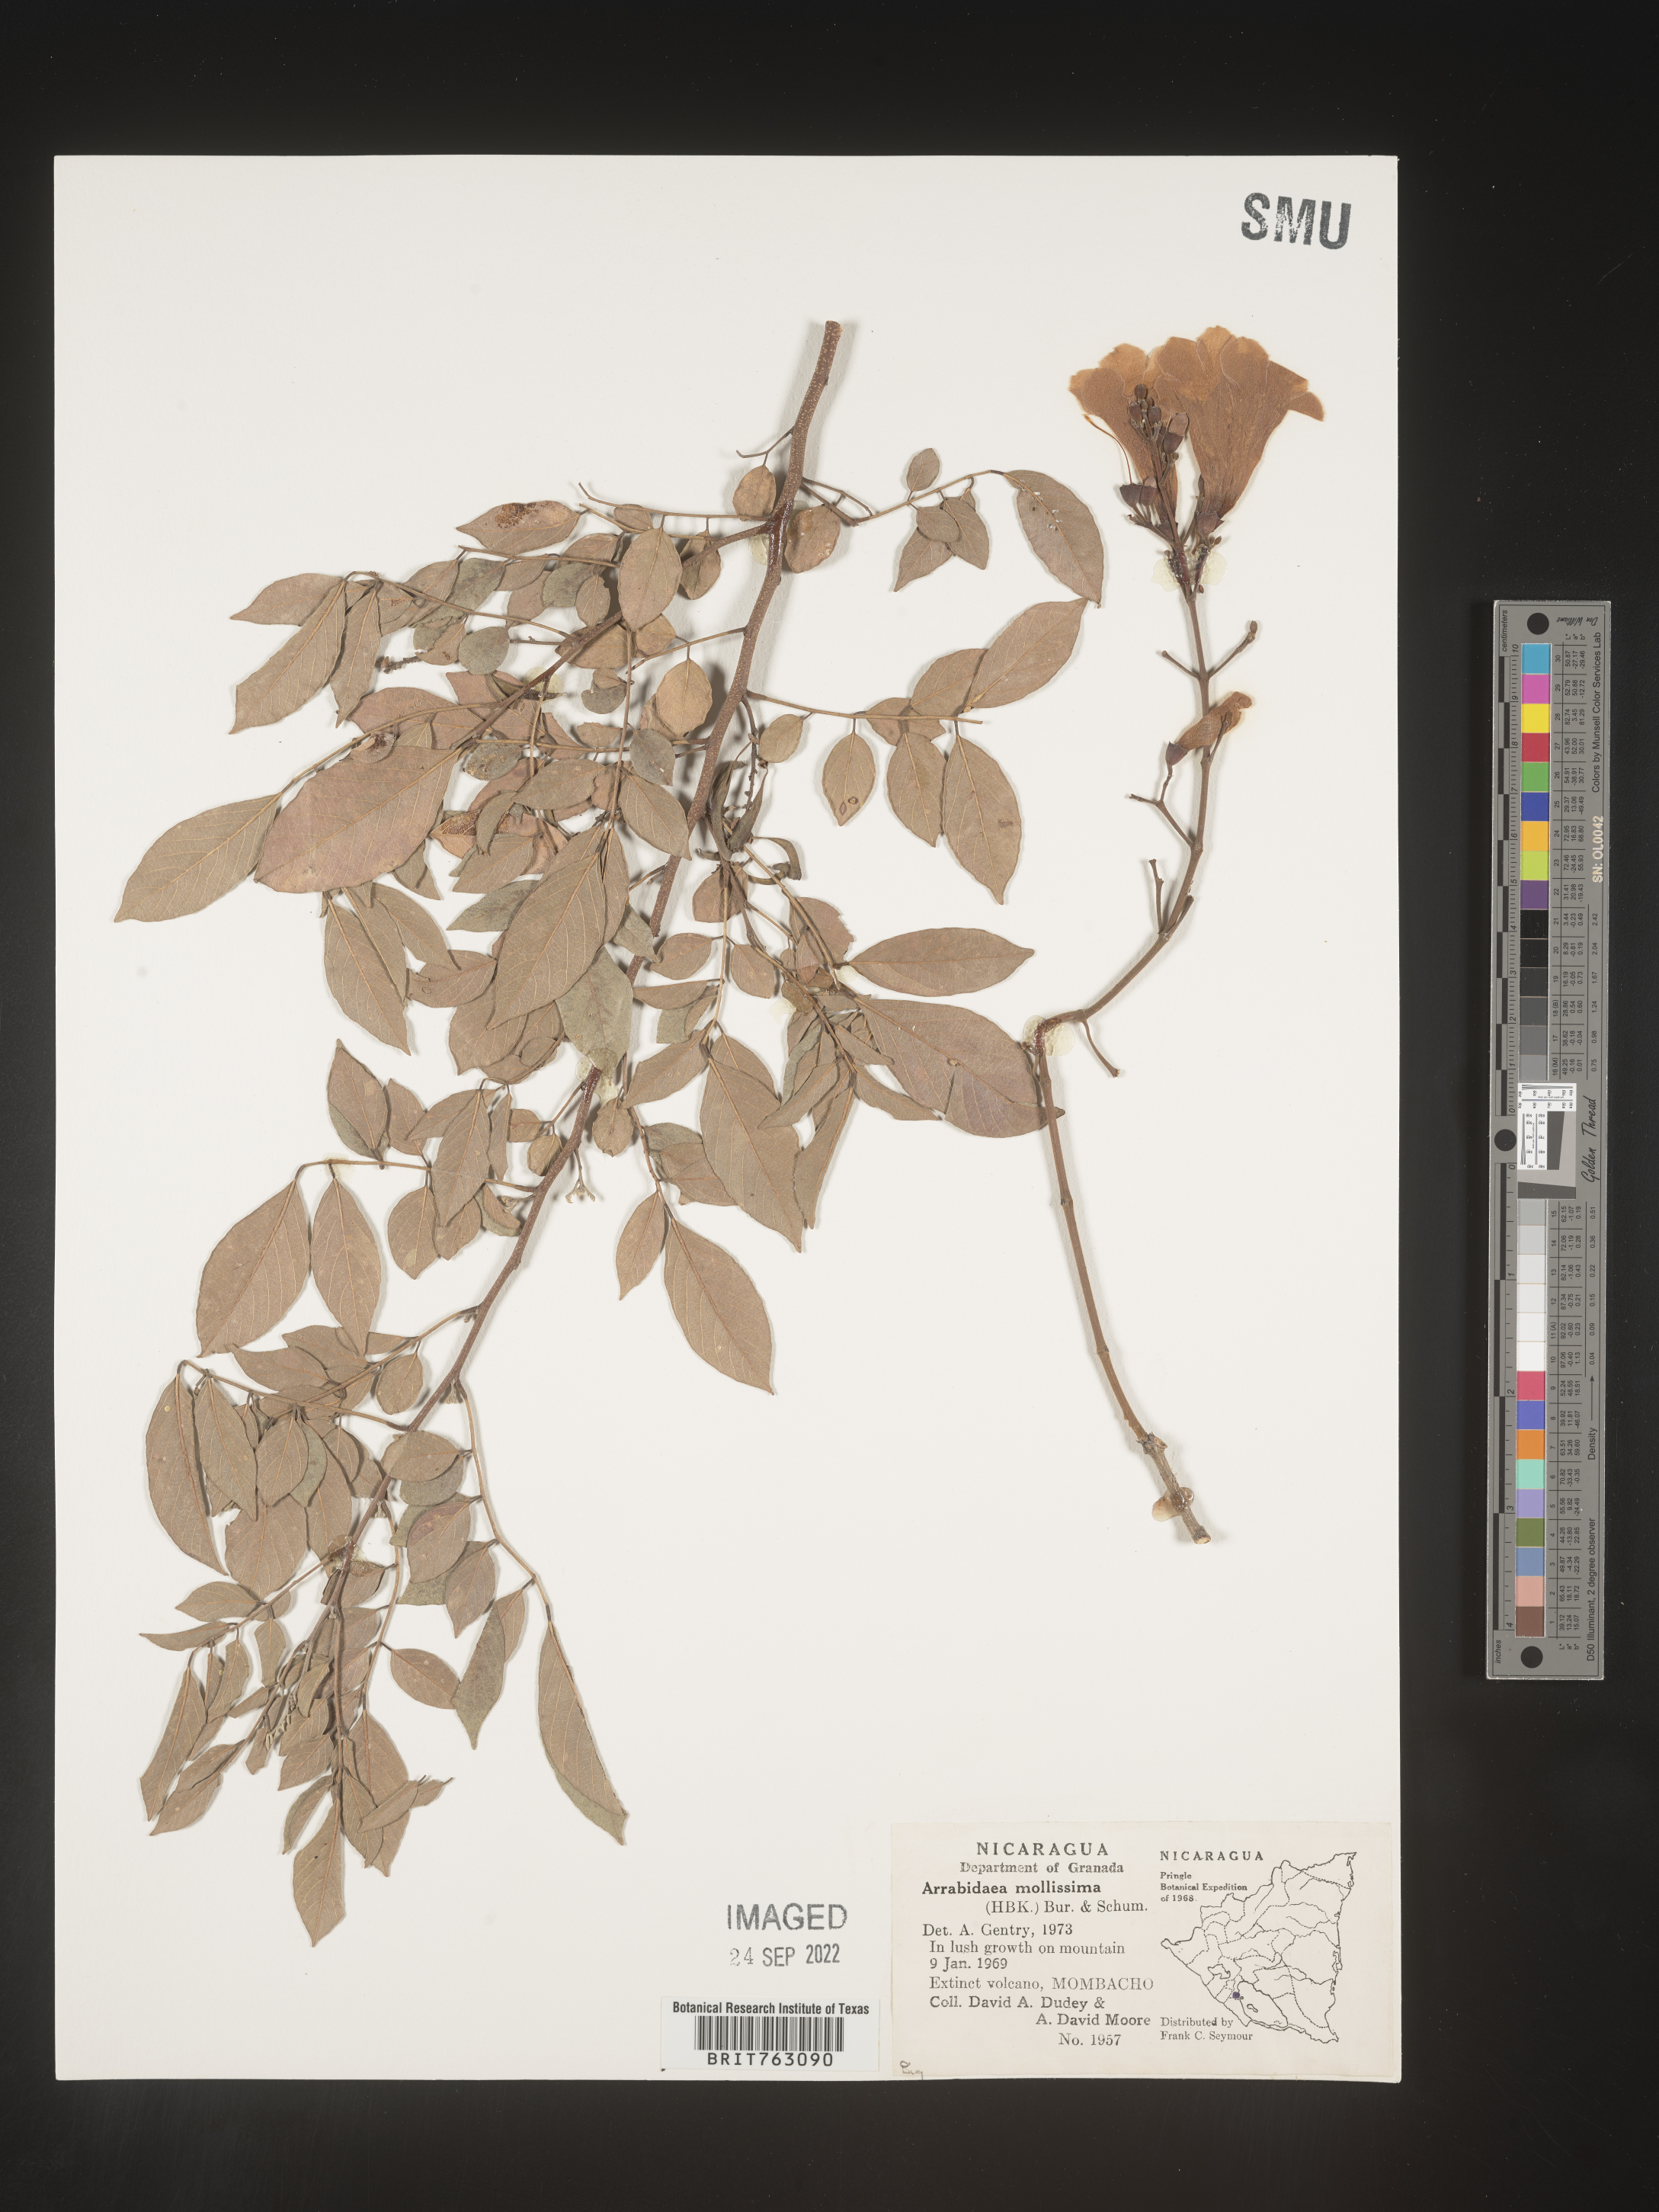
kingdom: Plantae
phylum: Tracheophyta
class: Magnoliopsida
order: Rosales
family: Rhamnaceae
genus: Arrabidaea
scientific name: Arrabidaea
